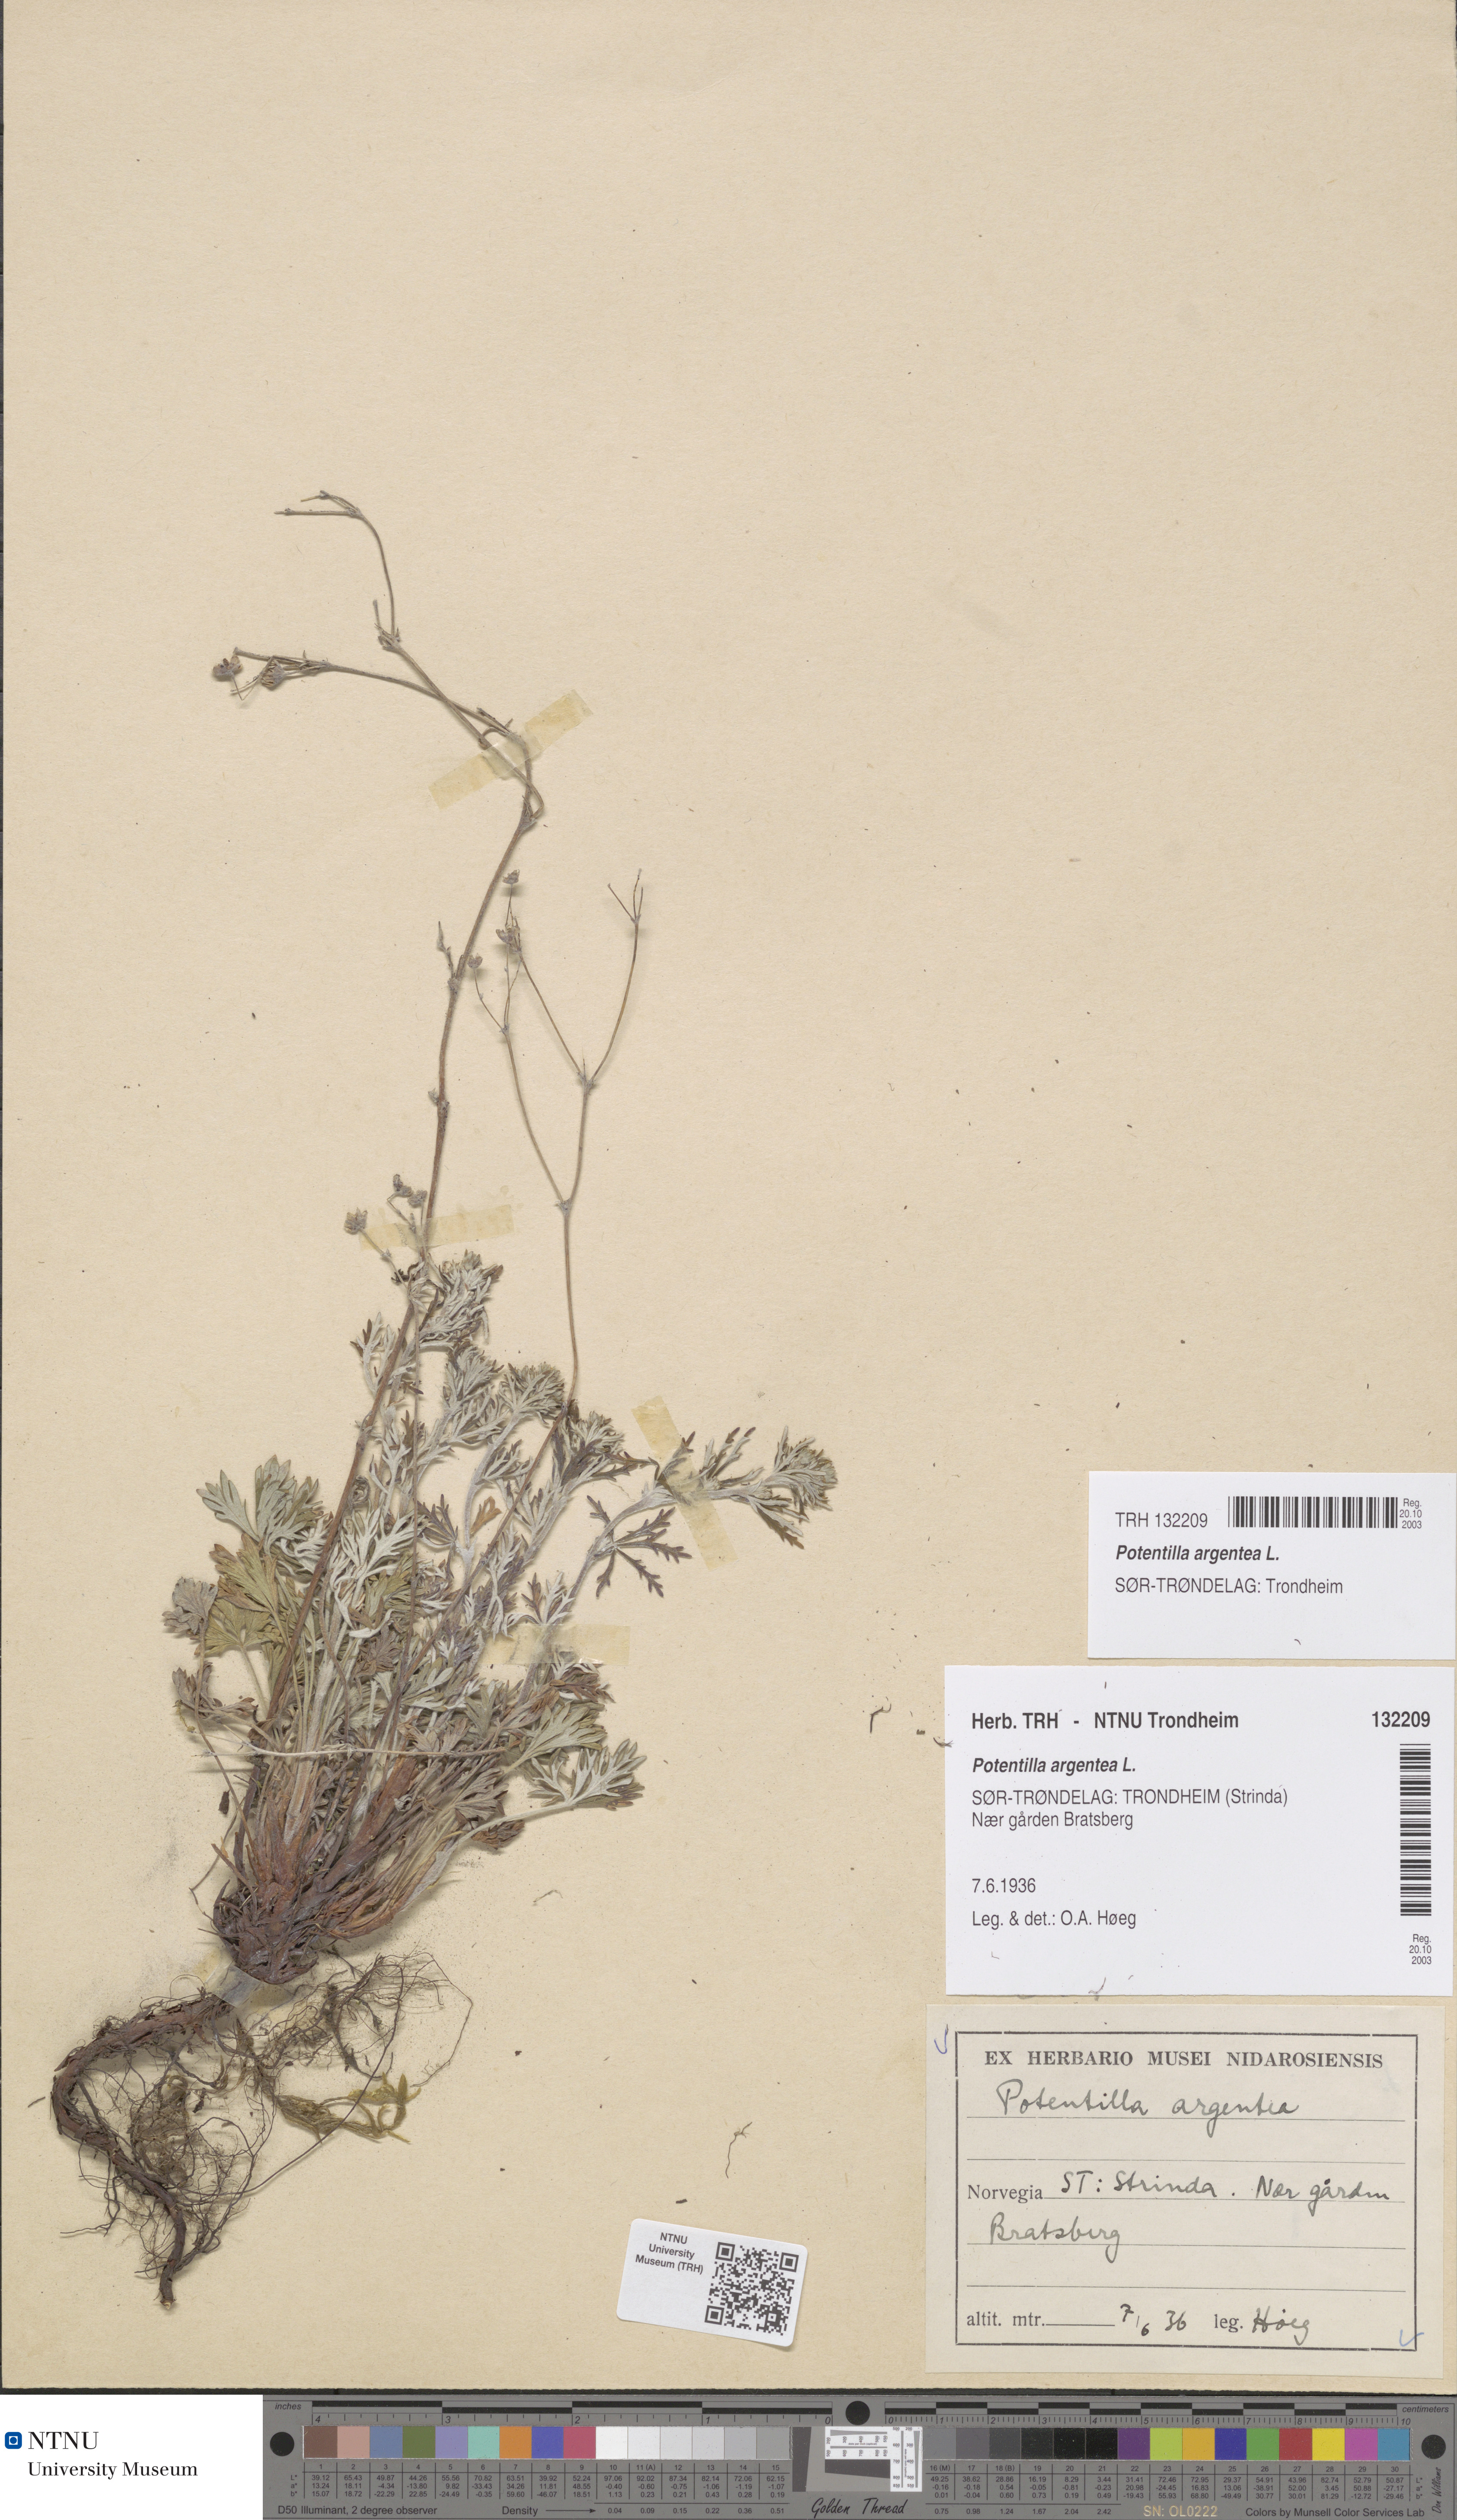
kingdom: Plantae
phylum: Tracheophyta
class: Magnoliopsida
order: Rosales
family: Rosaceae
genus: Potentilla
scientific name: Potentilla argentea
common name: Hoary cinquefoil
